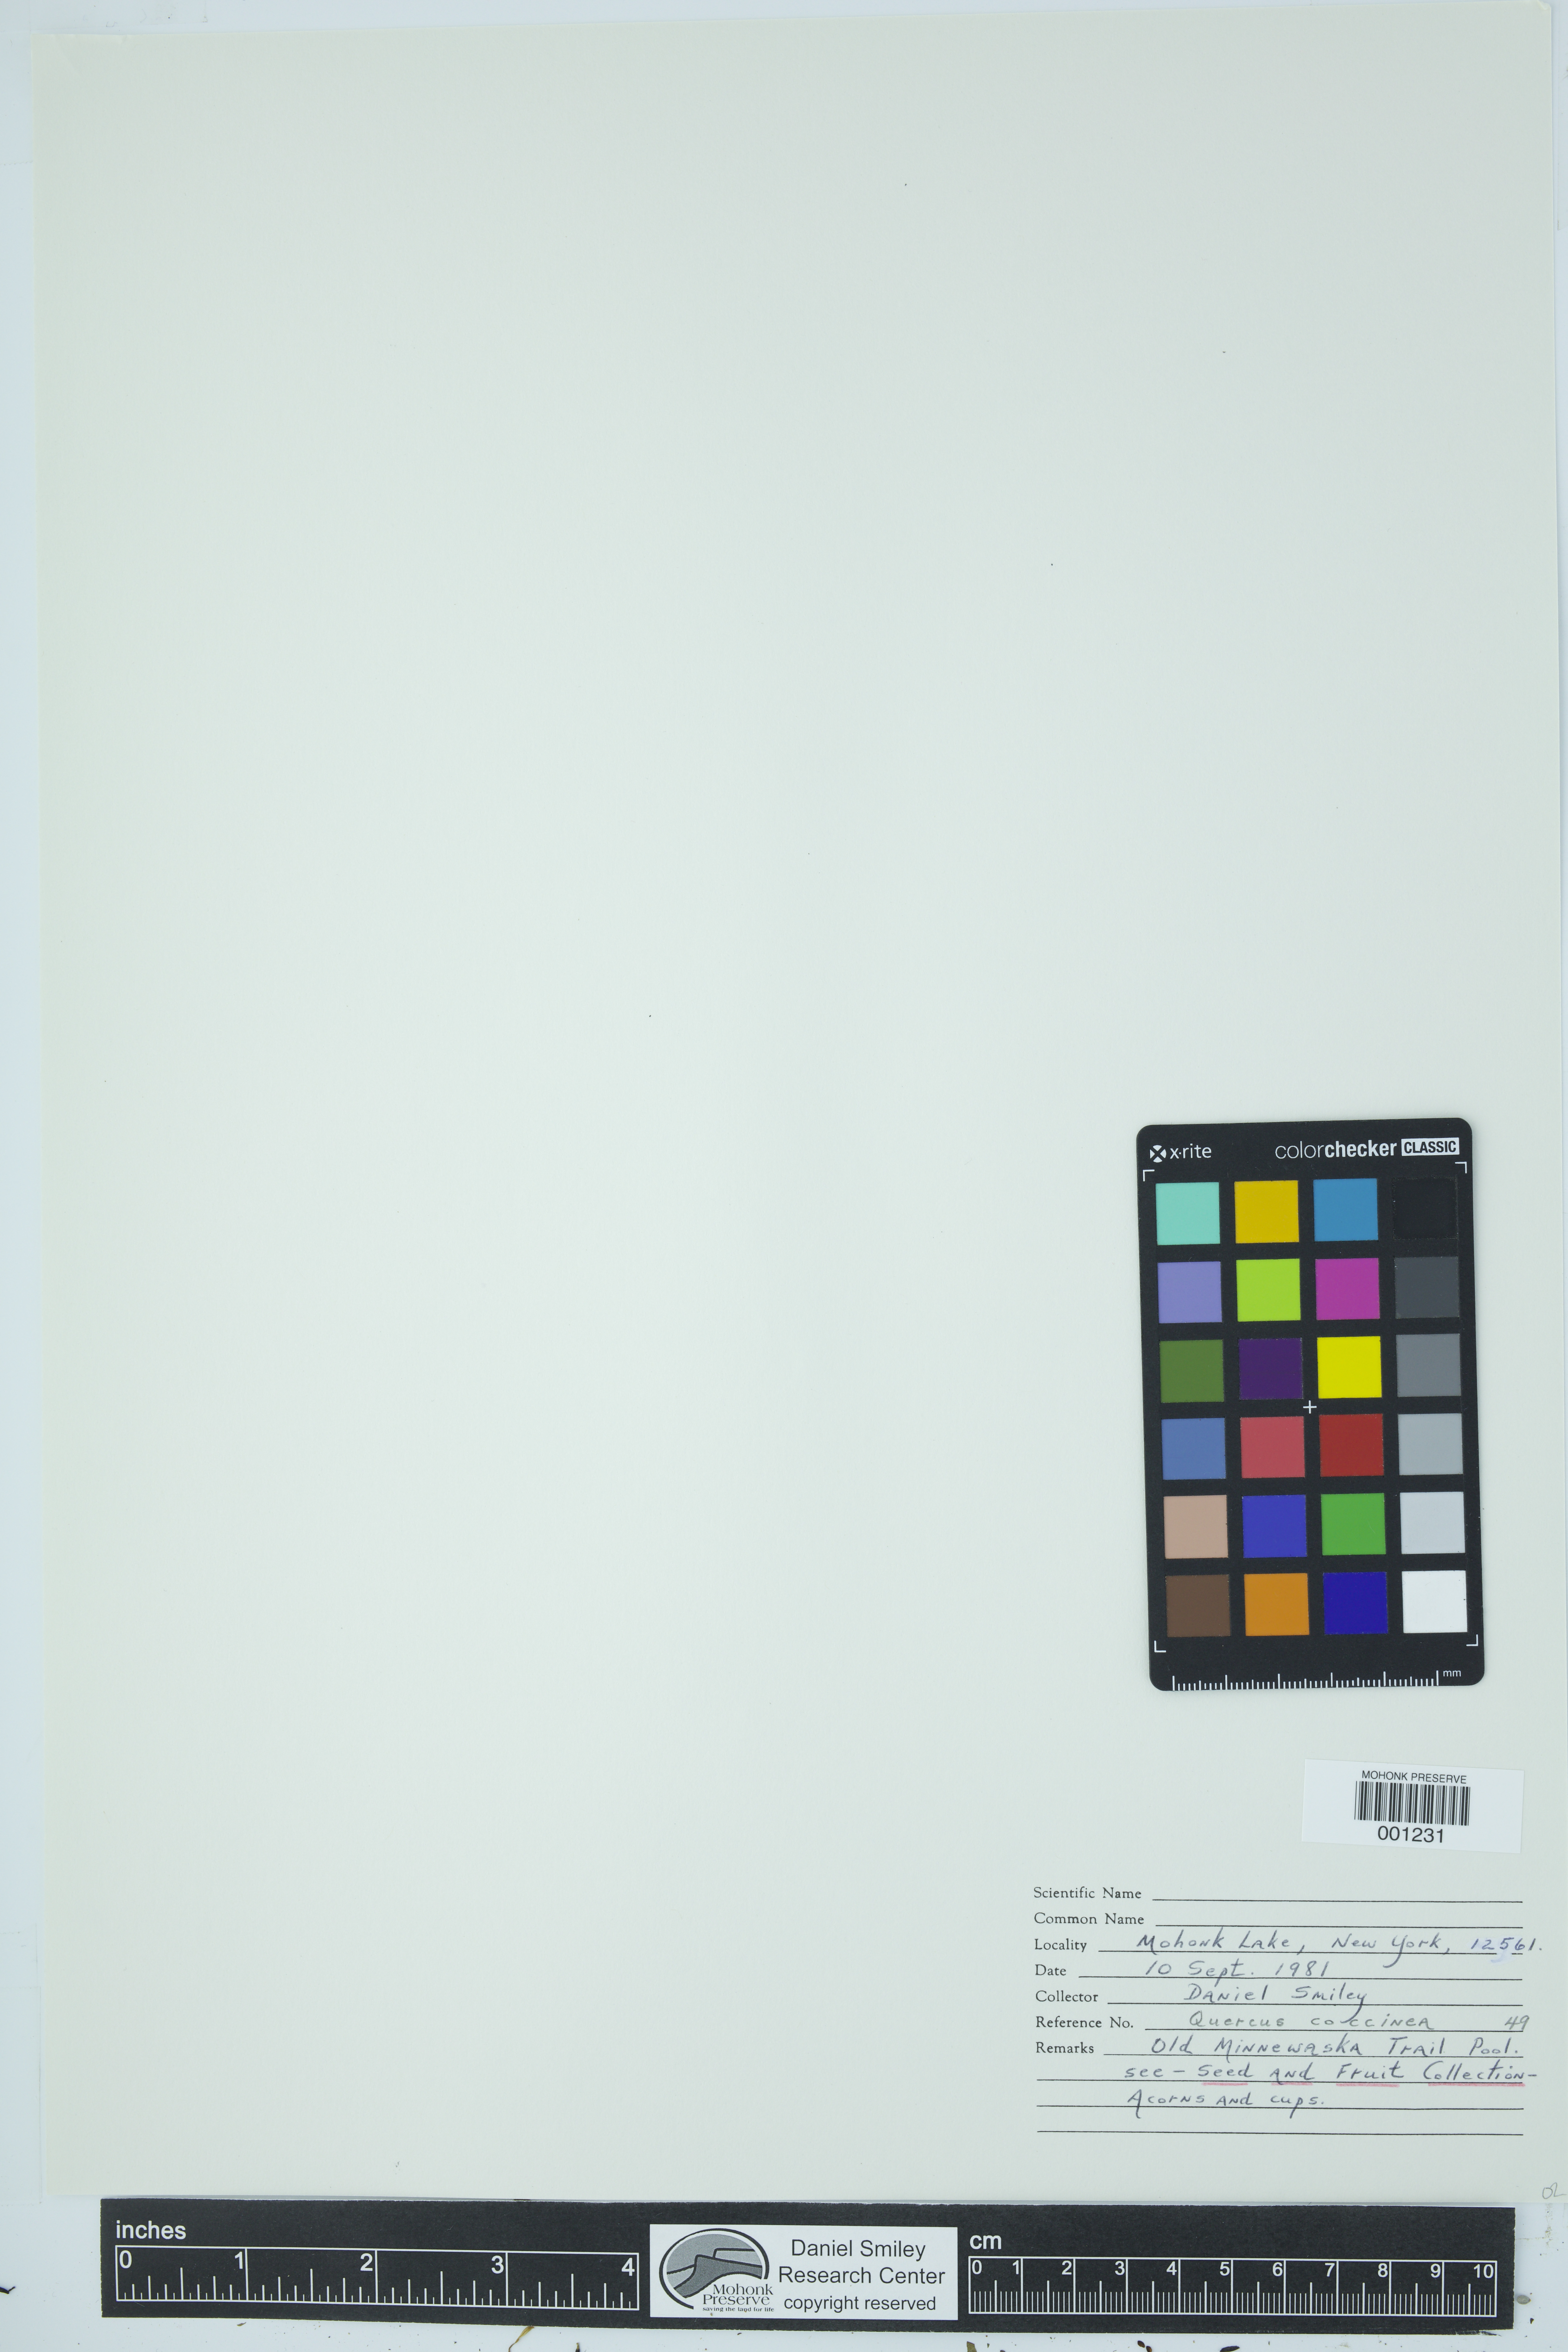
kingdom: Plantae
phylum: Tracheophyta
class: Magnoliopsida
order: Fagales
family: Fagaceae
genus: Quercus
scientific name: Quercus coccinea
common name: Scarlet oak
